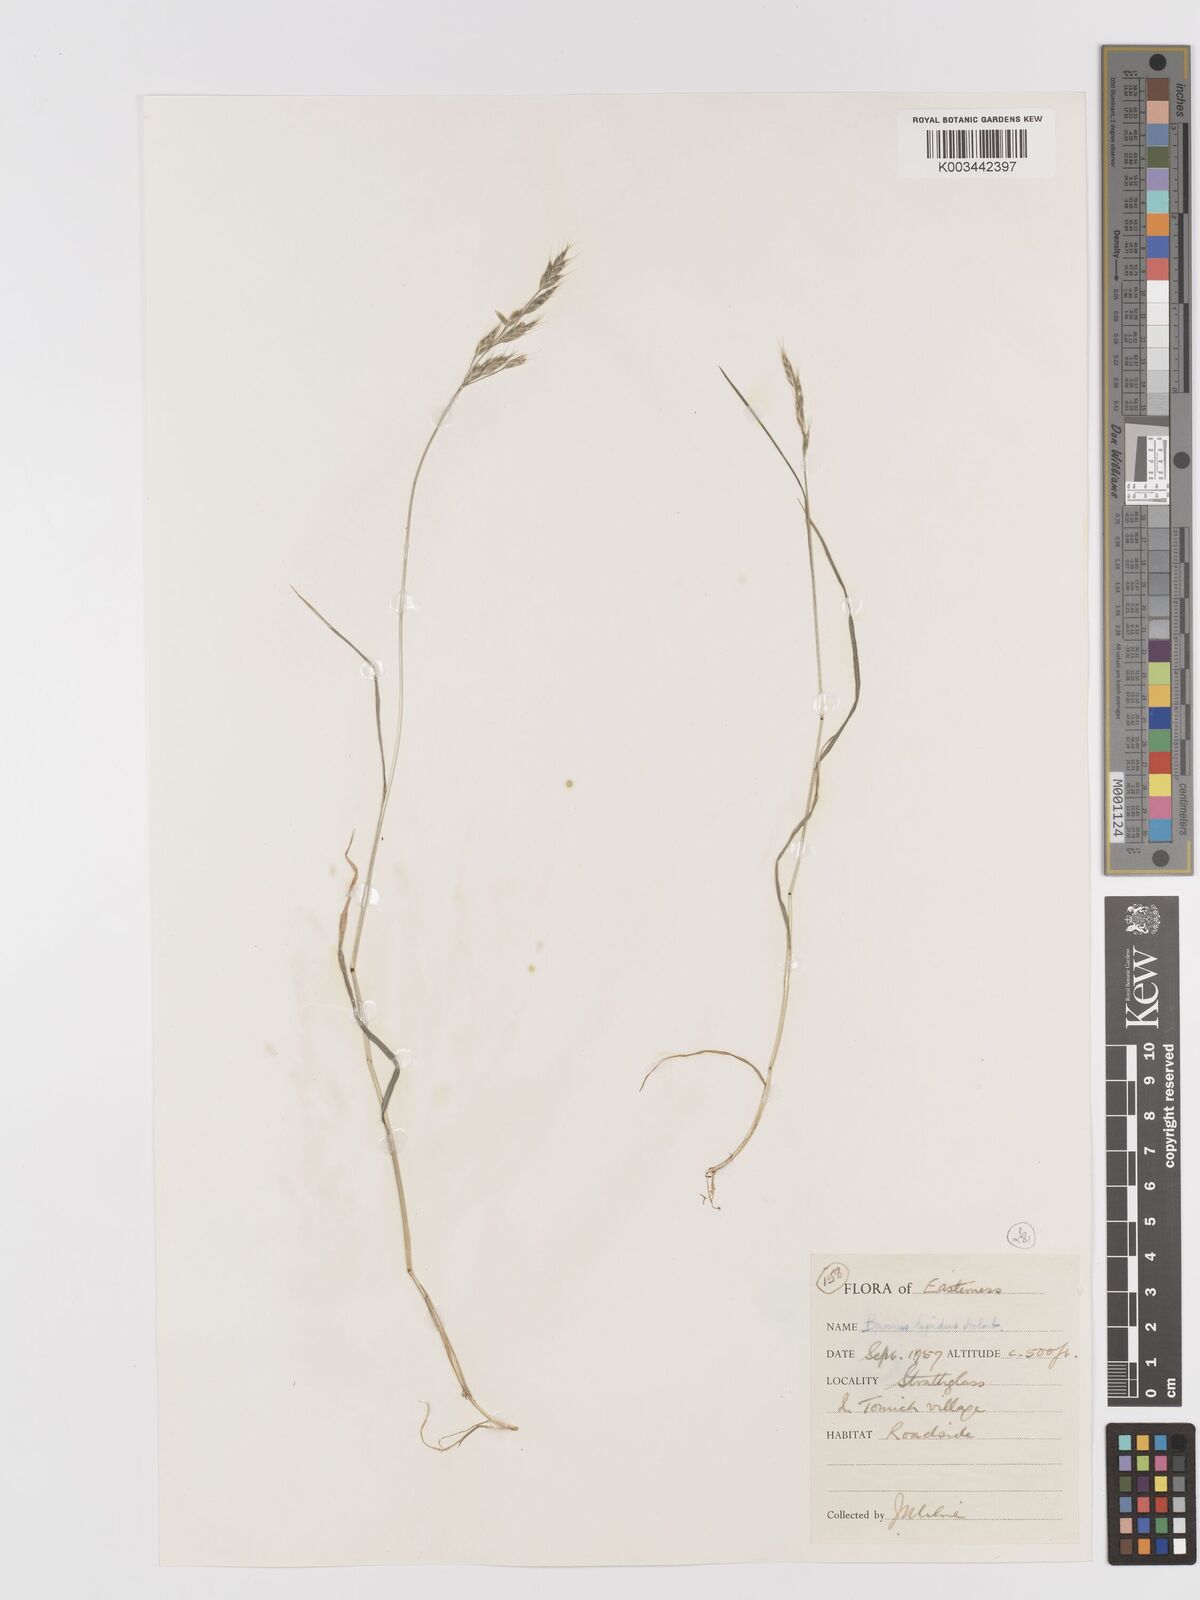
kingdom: Plantae
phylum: Tracheophyta
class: Liliopsida
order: Poales
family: Poaceae
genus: Bromus
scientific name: Bromus lepidus
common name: Slender soft-brome
